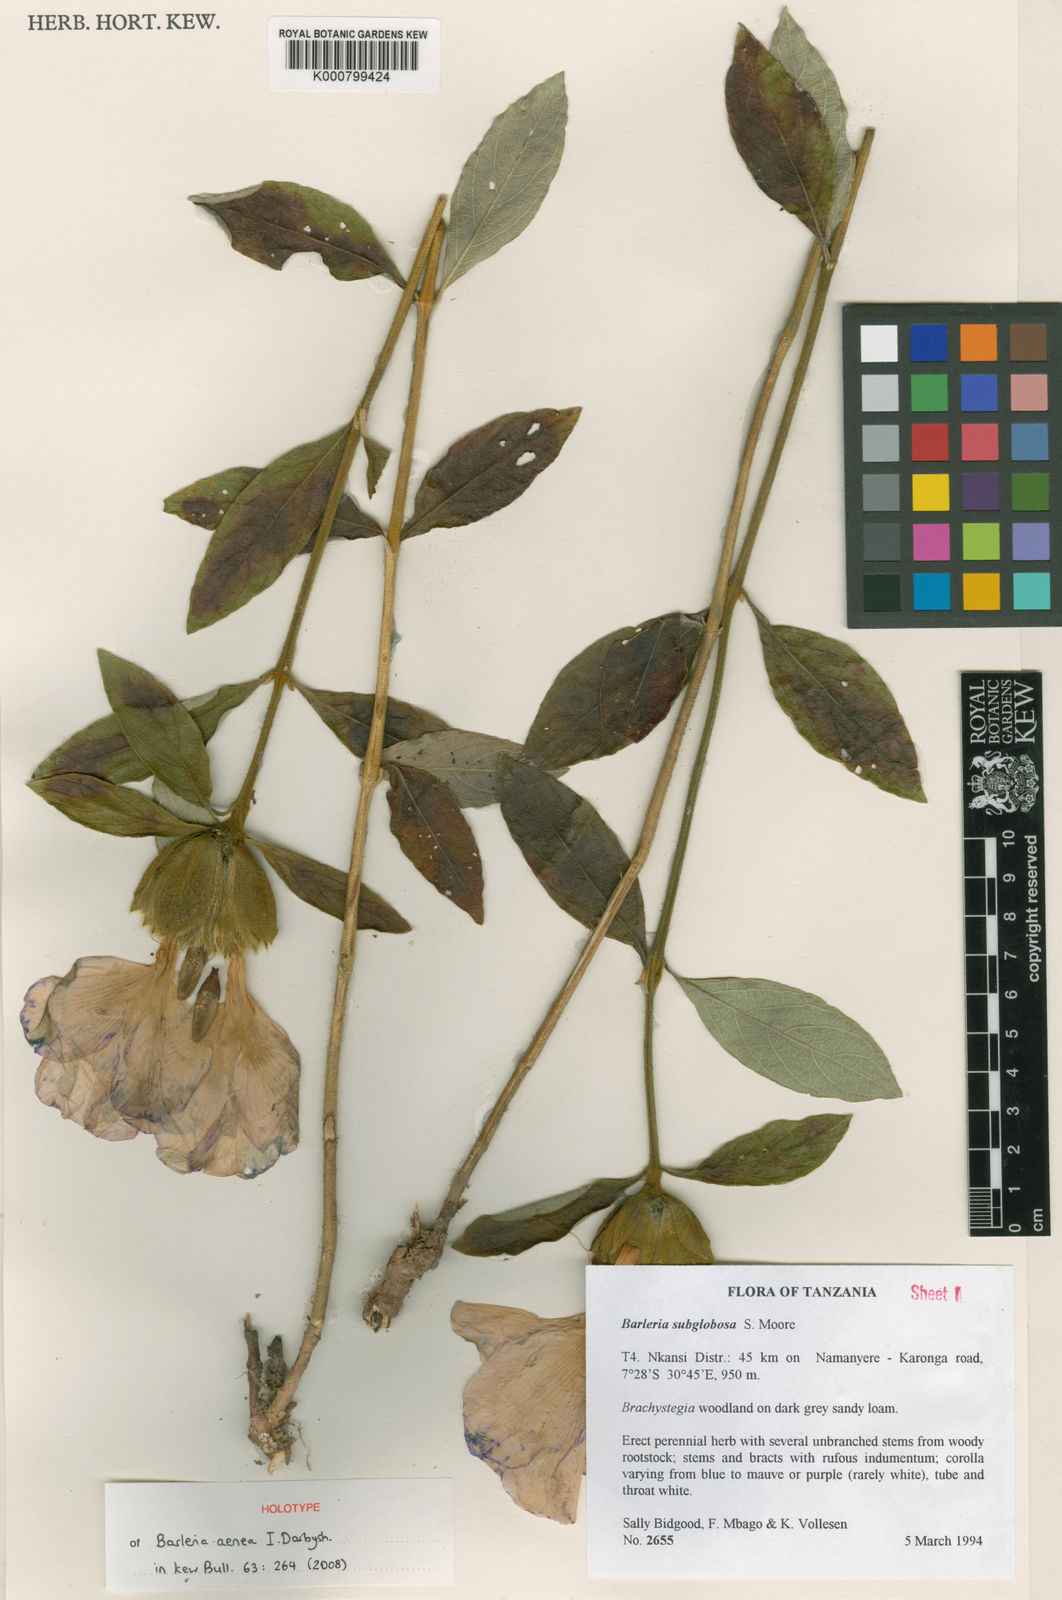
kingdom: Plantae
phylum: Tracheophyta
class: Magnoliopsida
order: Lamiales
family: Acanthaceae
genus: Barleria
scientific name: Barleria aenea
